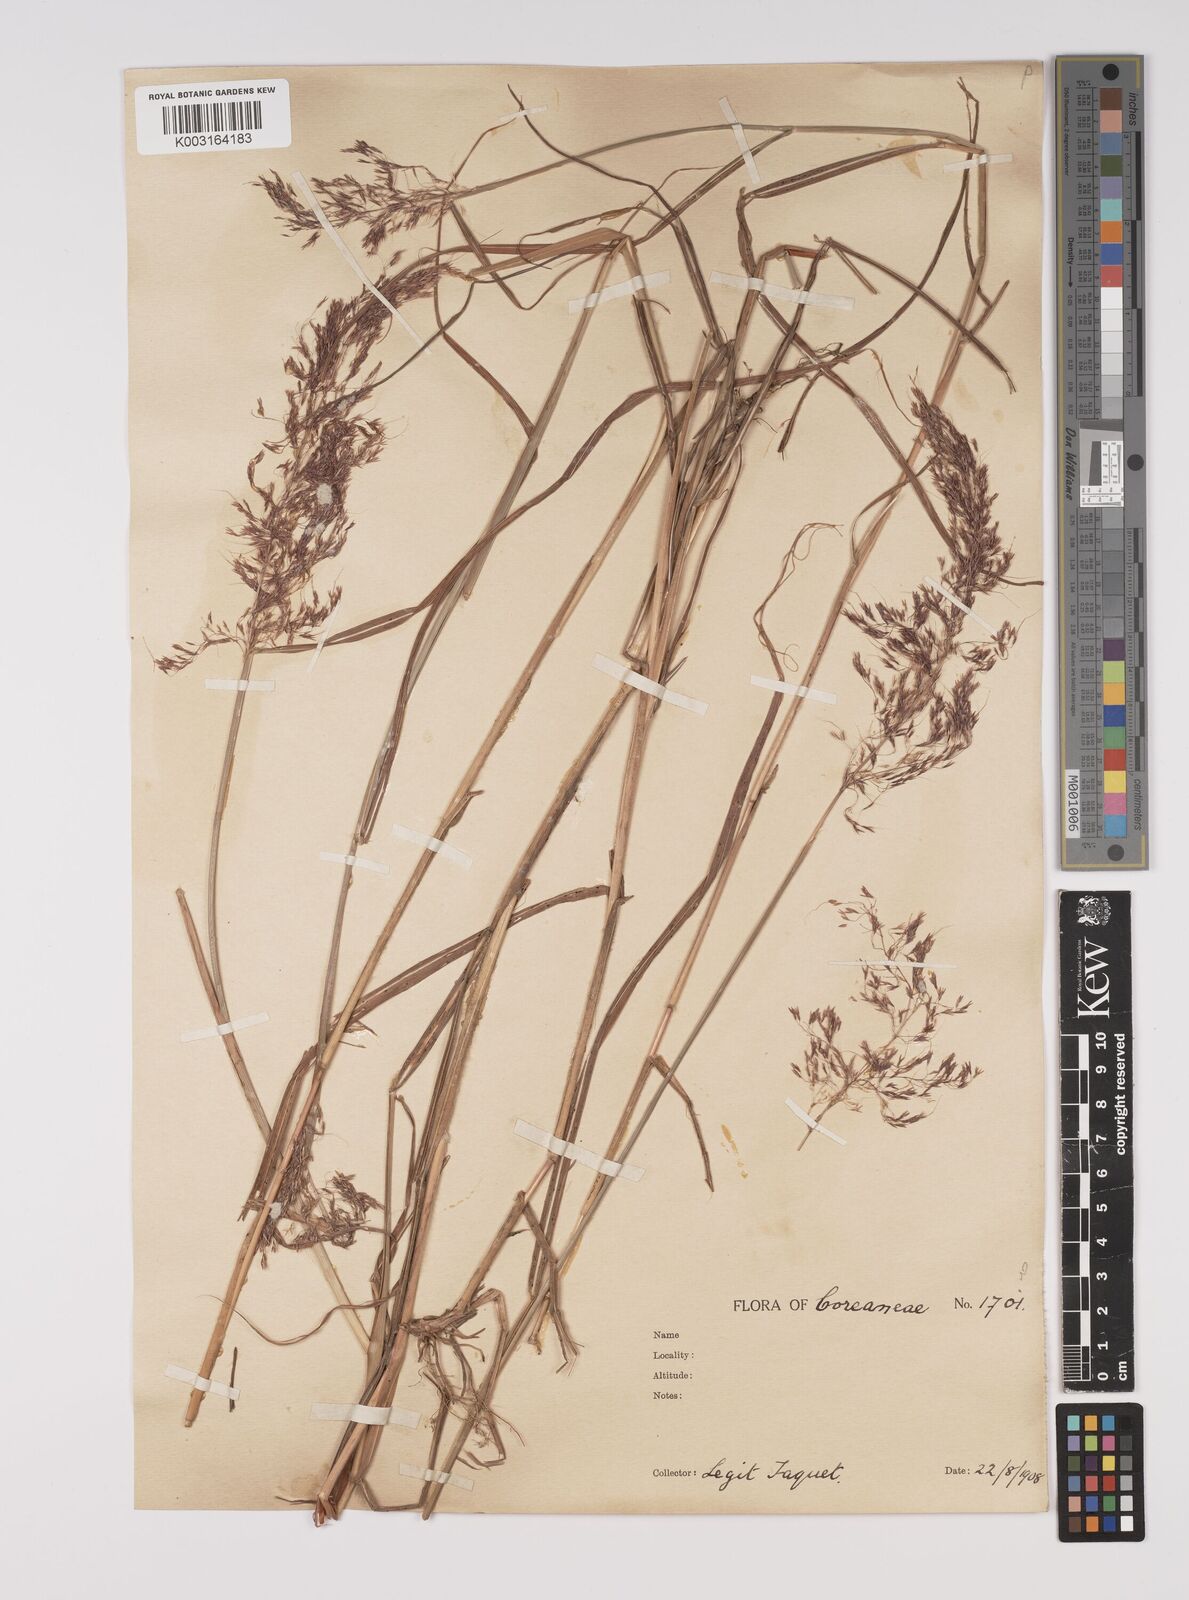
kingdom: Plantae
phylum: Tracheophyta
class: Liliopsida
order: Poales
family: Poaceae
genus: Capillipedium
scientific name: Capillipedium parviflorum
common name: Golden-beard
